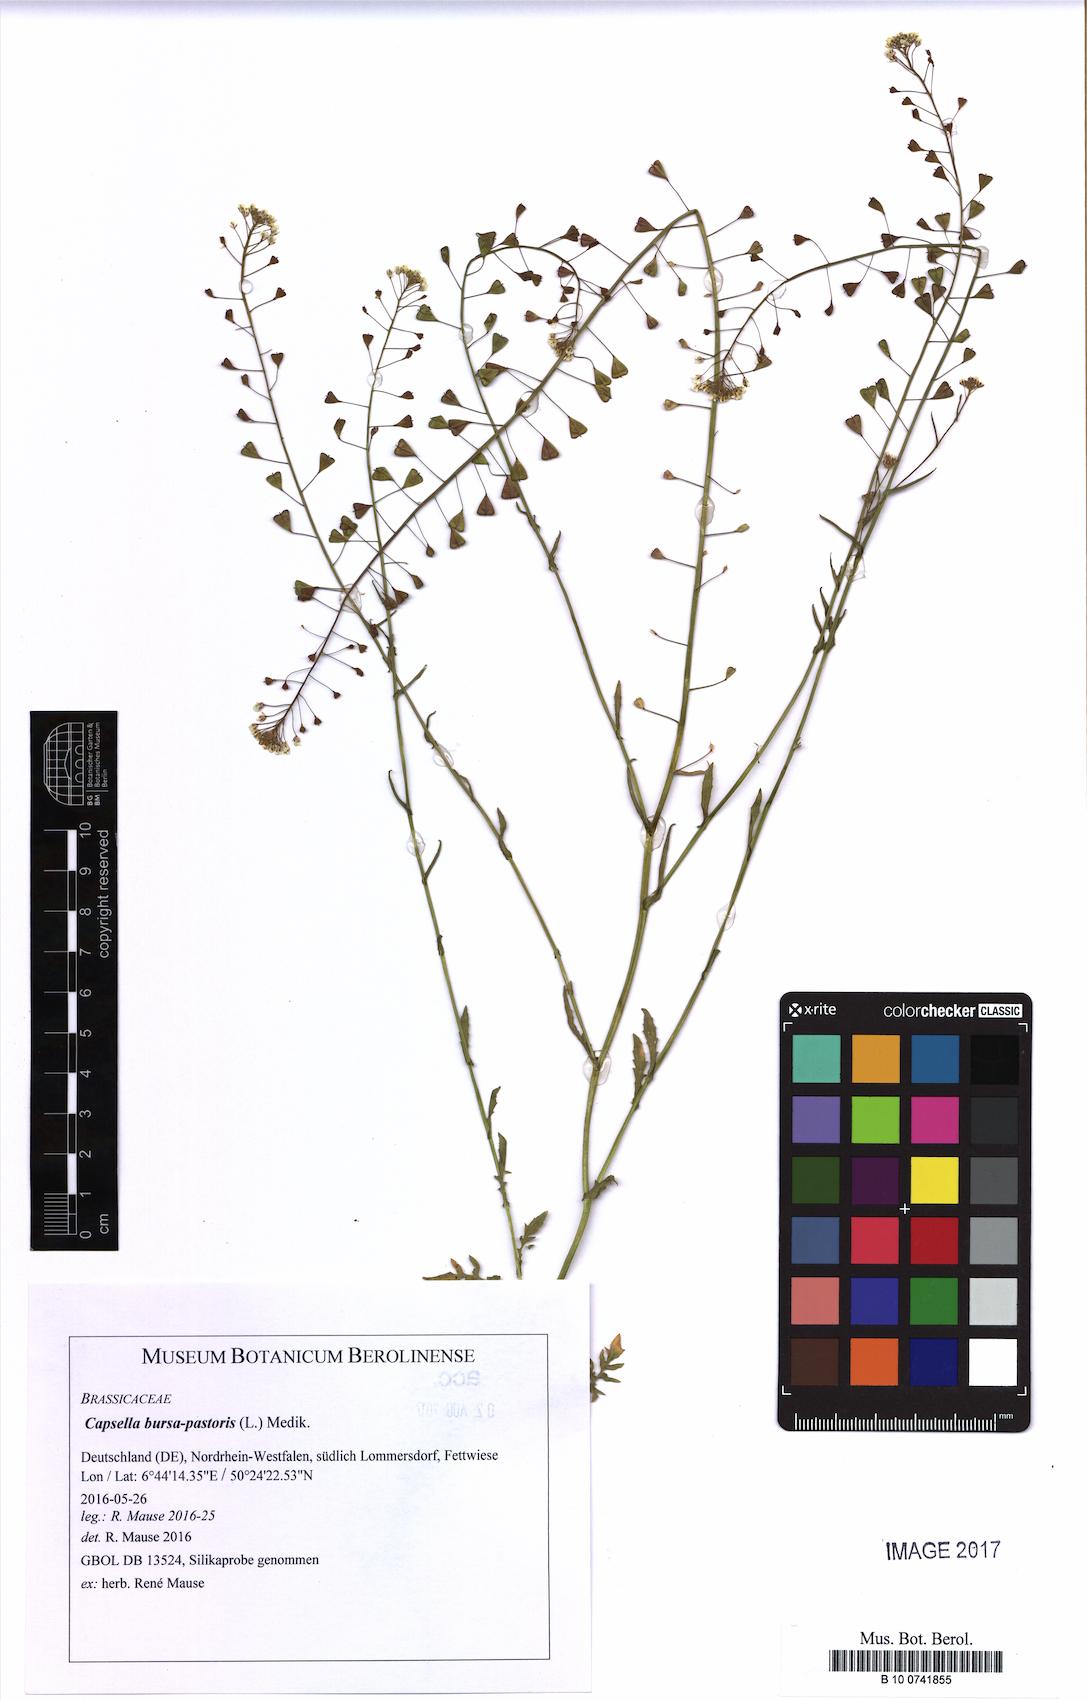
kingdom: Plantae
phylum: Tracheophyta
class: Magnoliopsida
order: Brassicales
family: Brassicaceae
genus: Capsella
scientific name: Capsella bursa-pastoris
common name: Shepherd's purse
